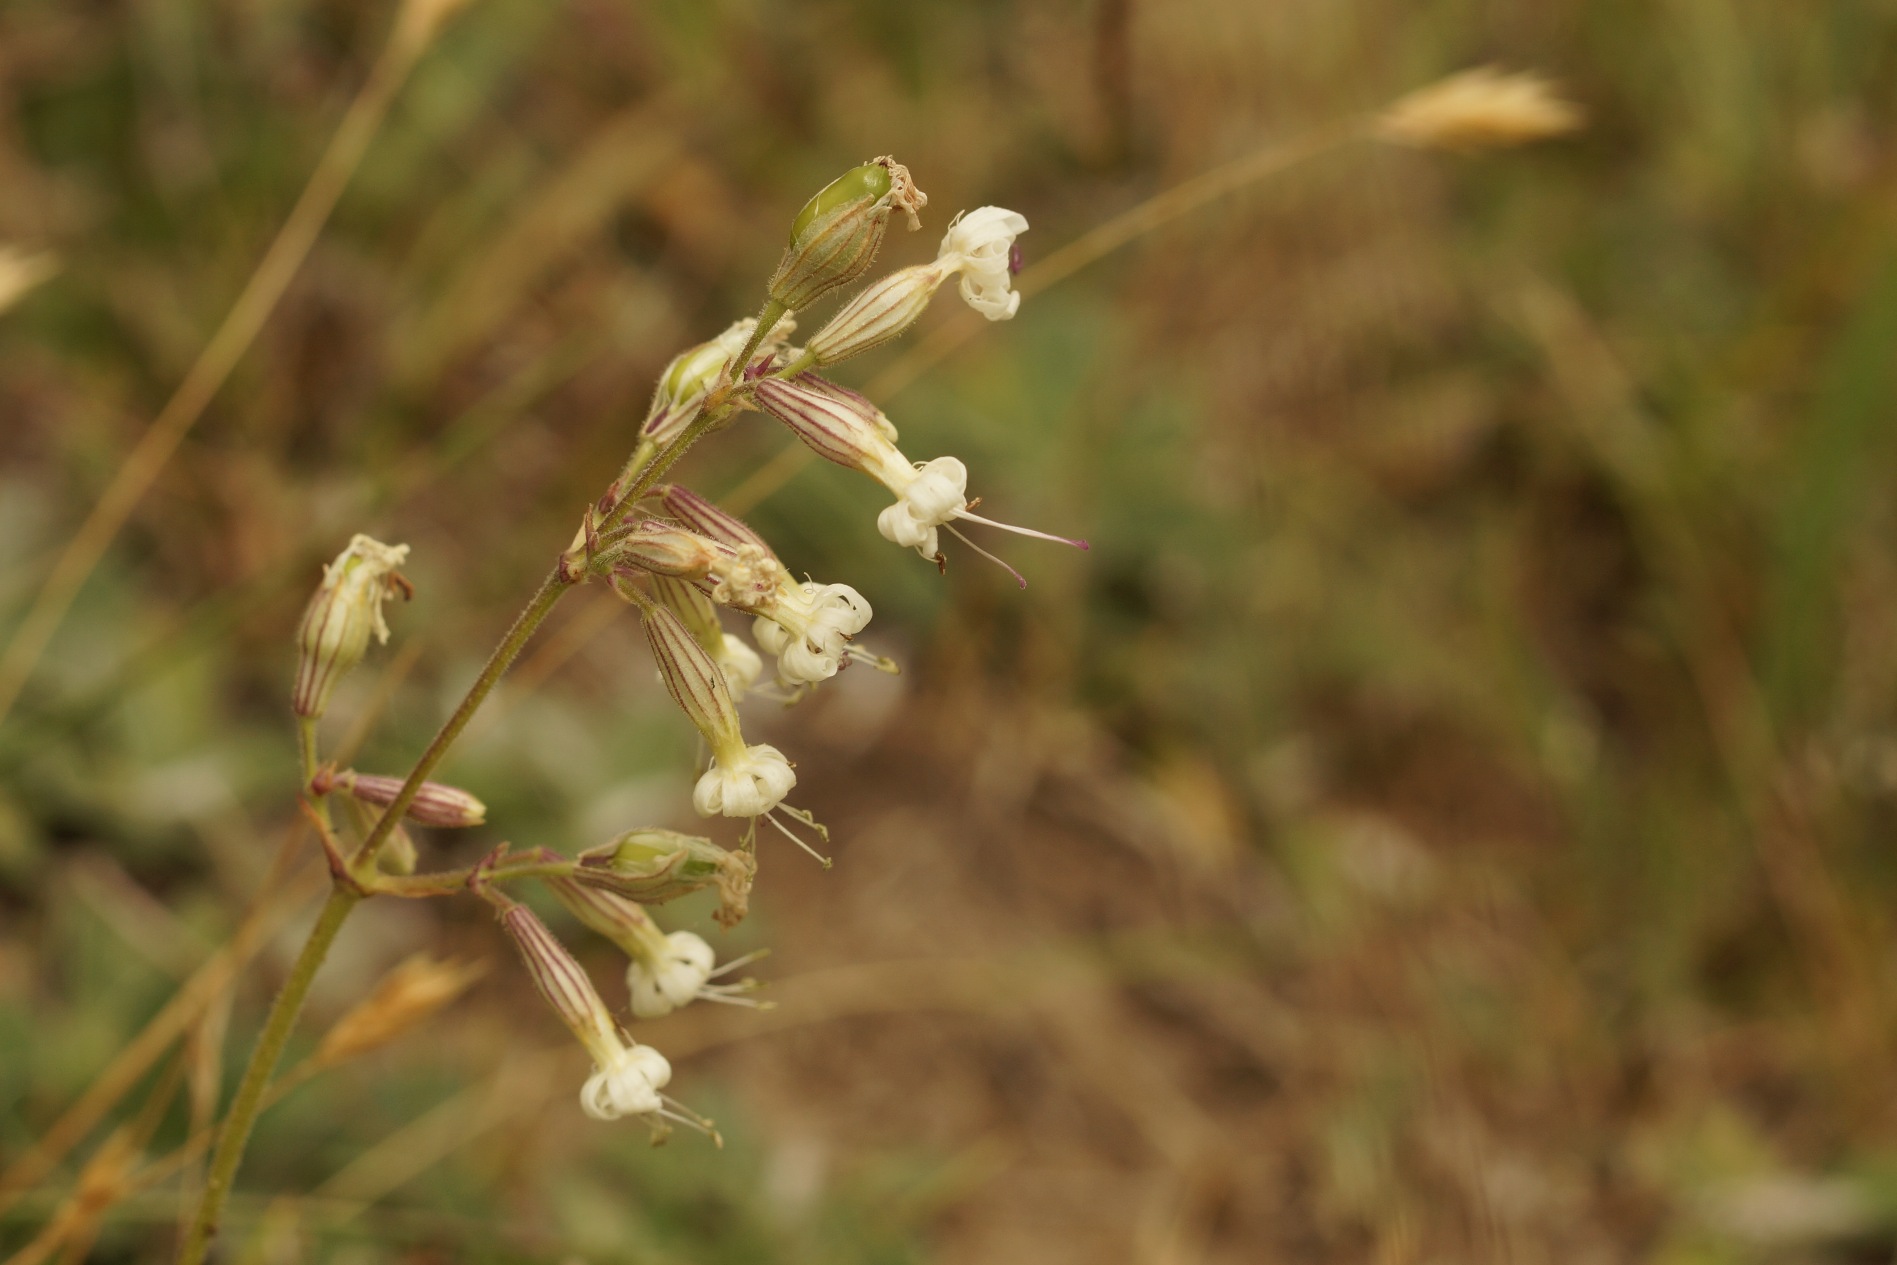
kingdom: Plantae
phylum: Tracheophyta
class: Magnoliopsida
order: Caryophyllales
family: Caryophyllaceae
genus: Silene
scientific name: Silene nutans
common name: Nikkende limurt
